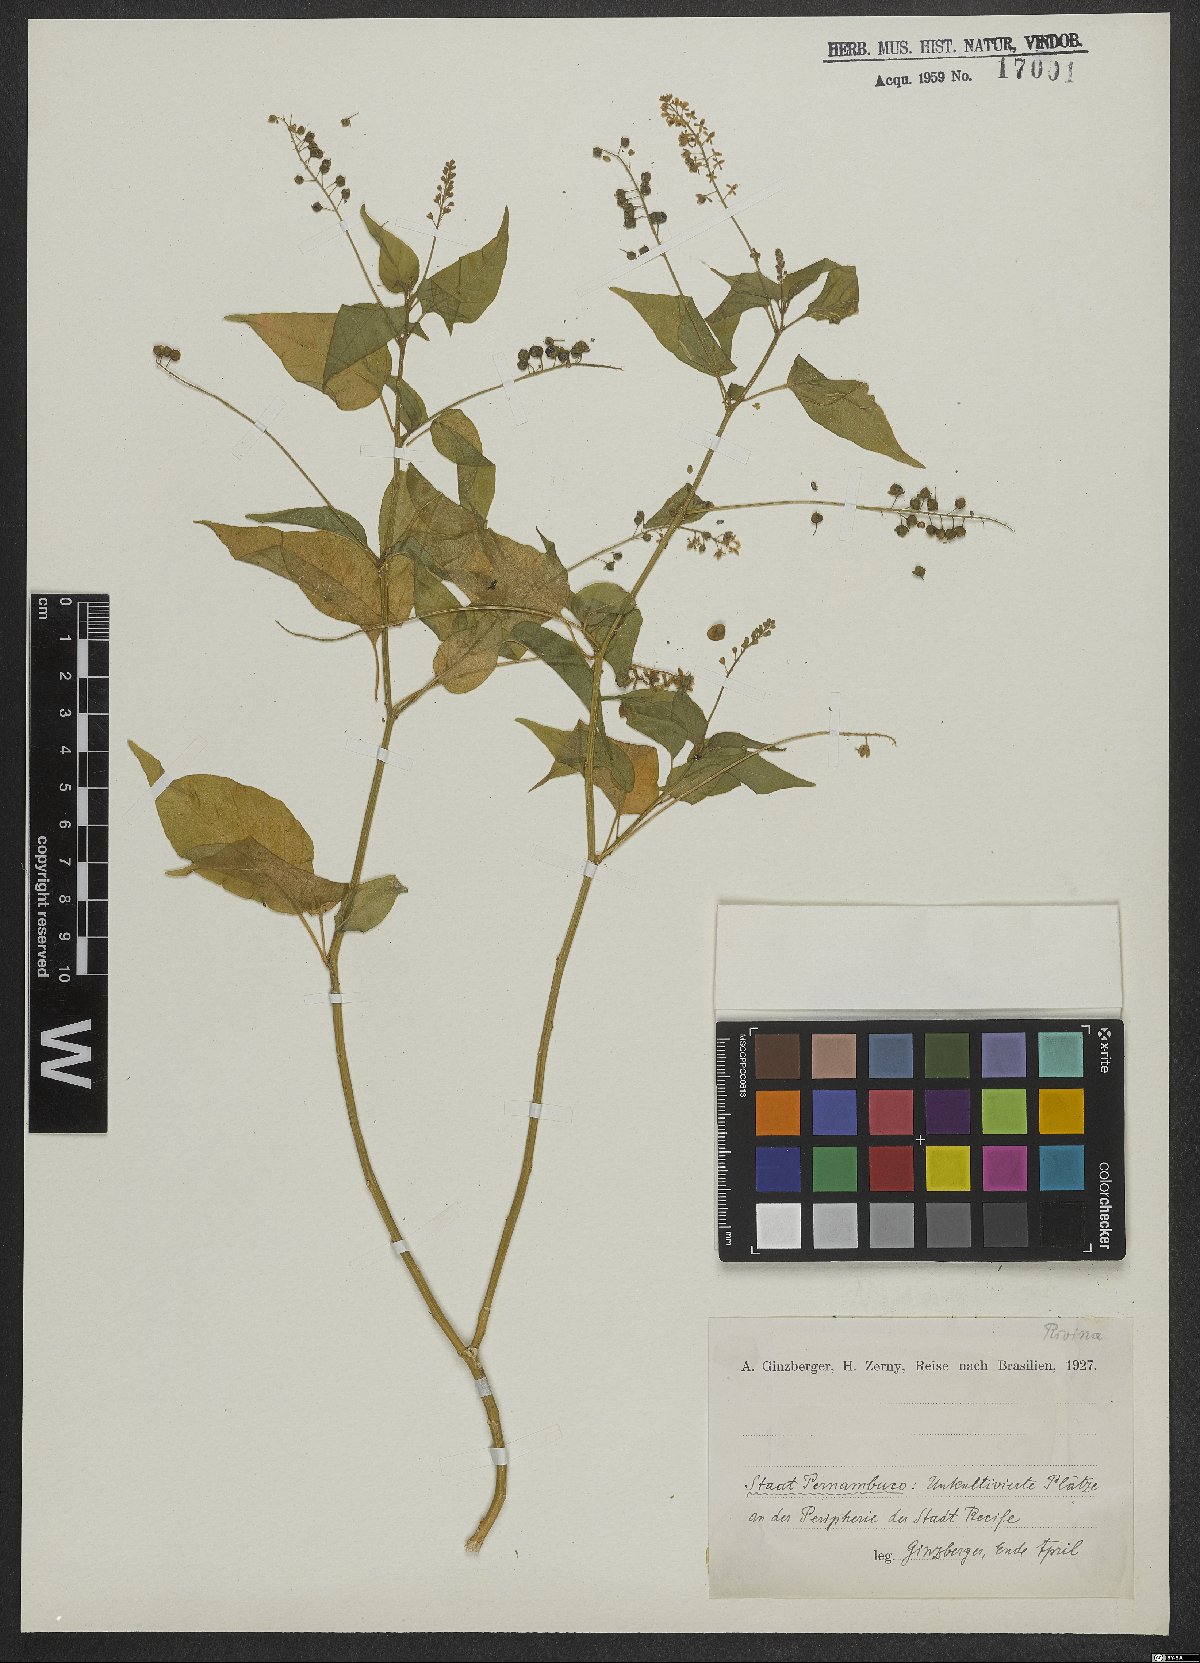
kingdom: Plantae
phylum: Tracheophyta
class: Magnoliopsida
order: Caryophyllales
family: Phytolaccaceae
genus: Rivina
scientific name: Rivina humilis
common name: Rougeplant
